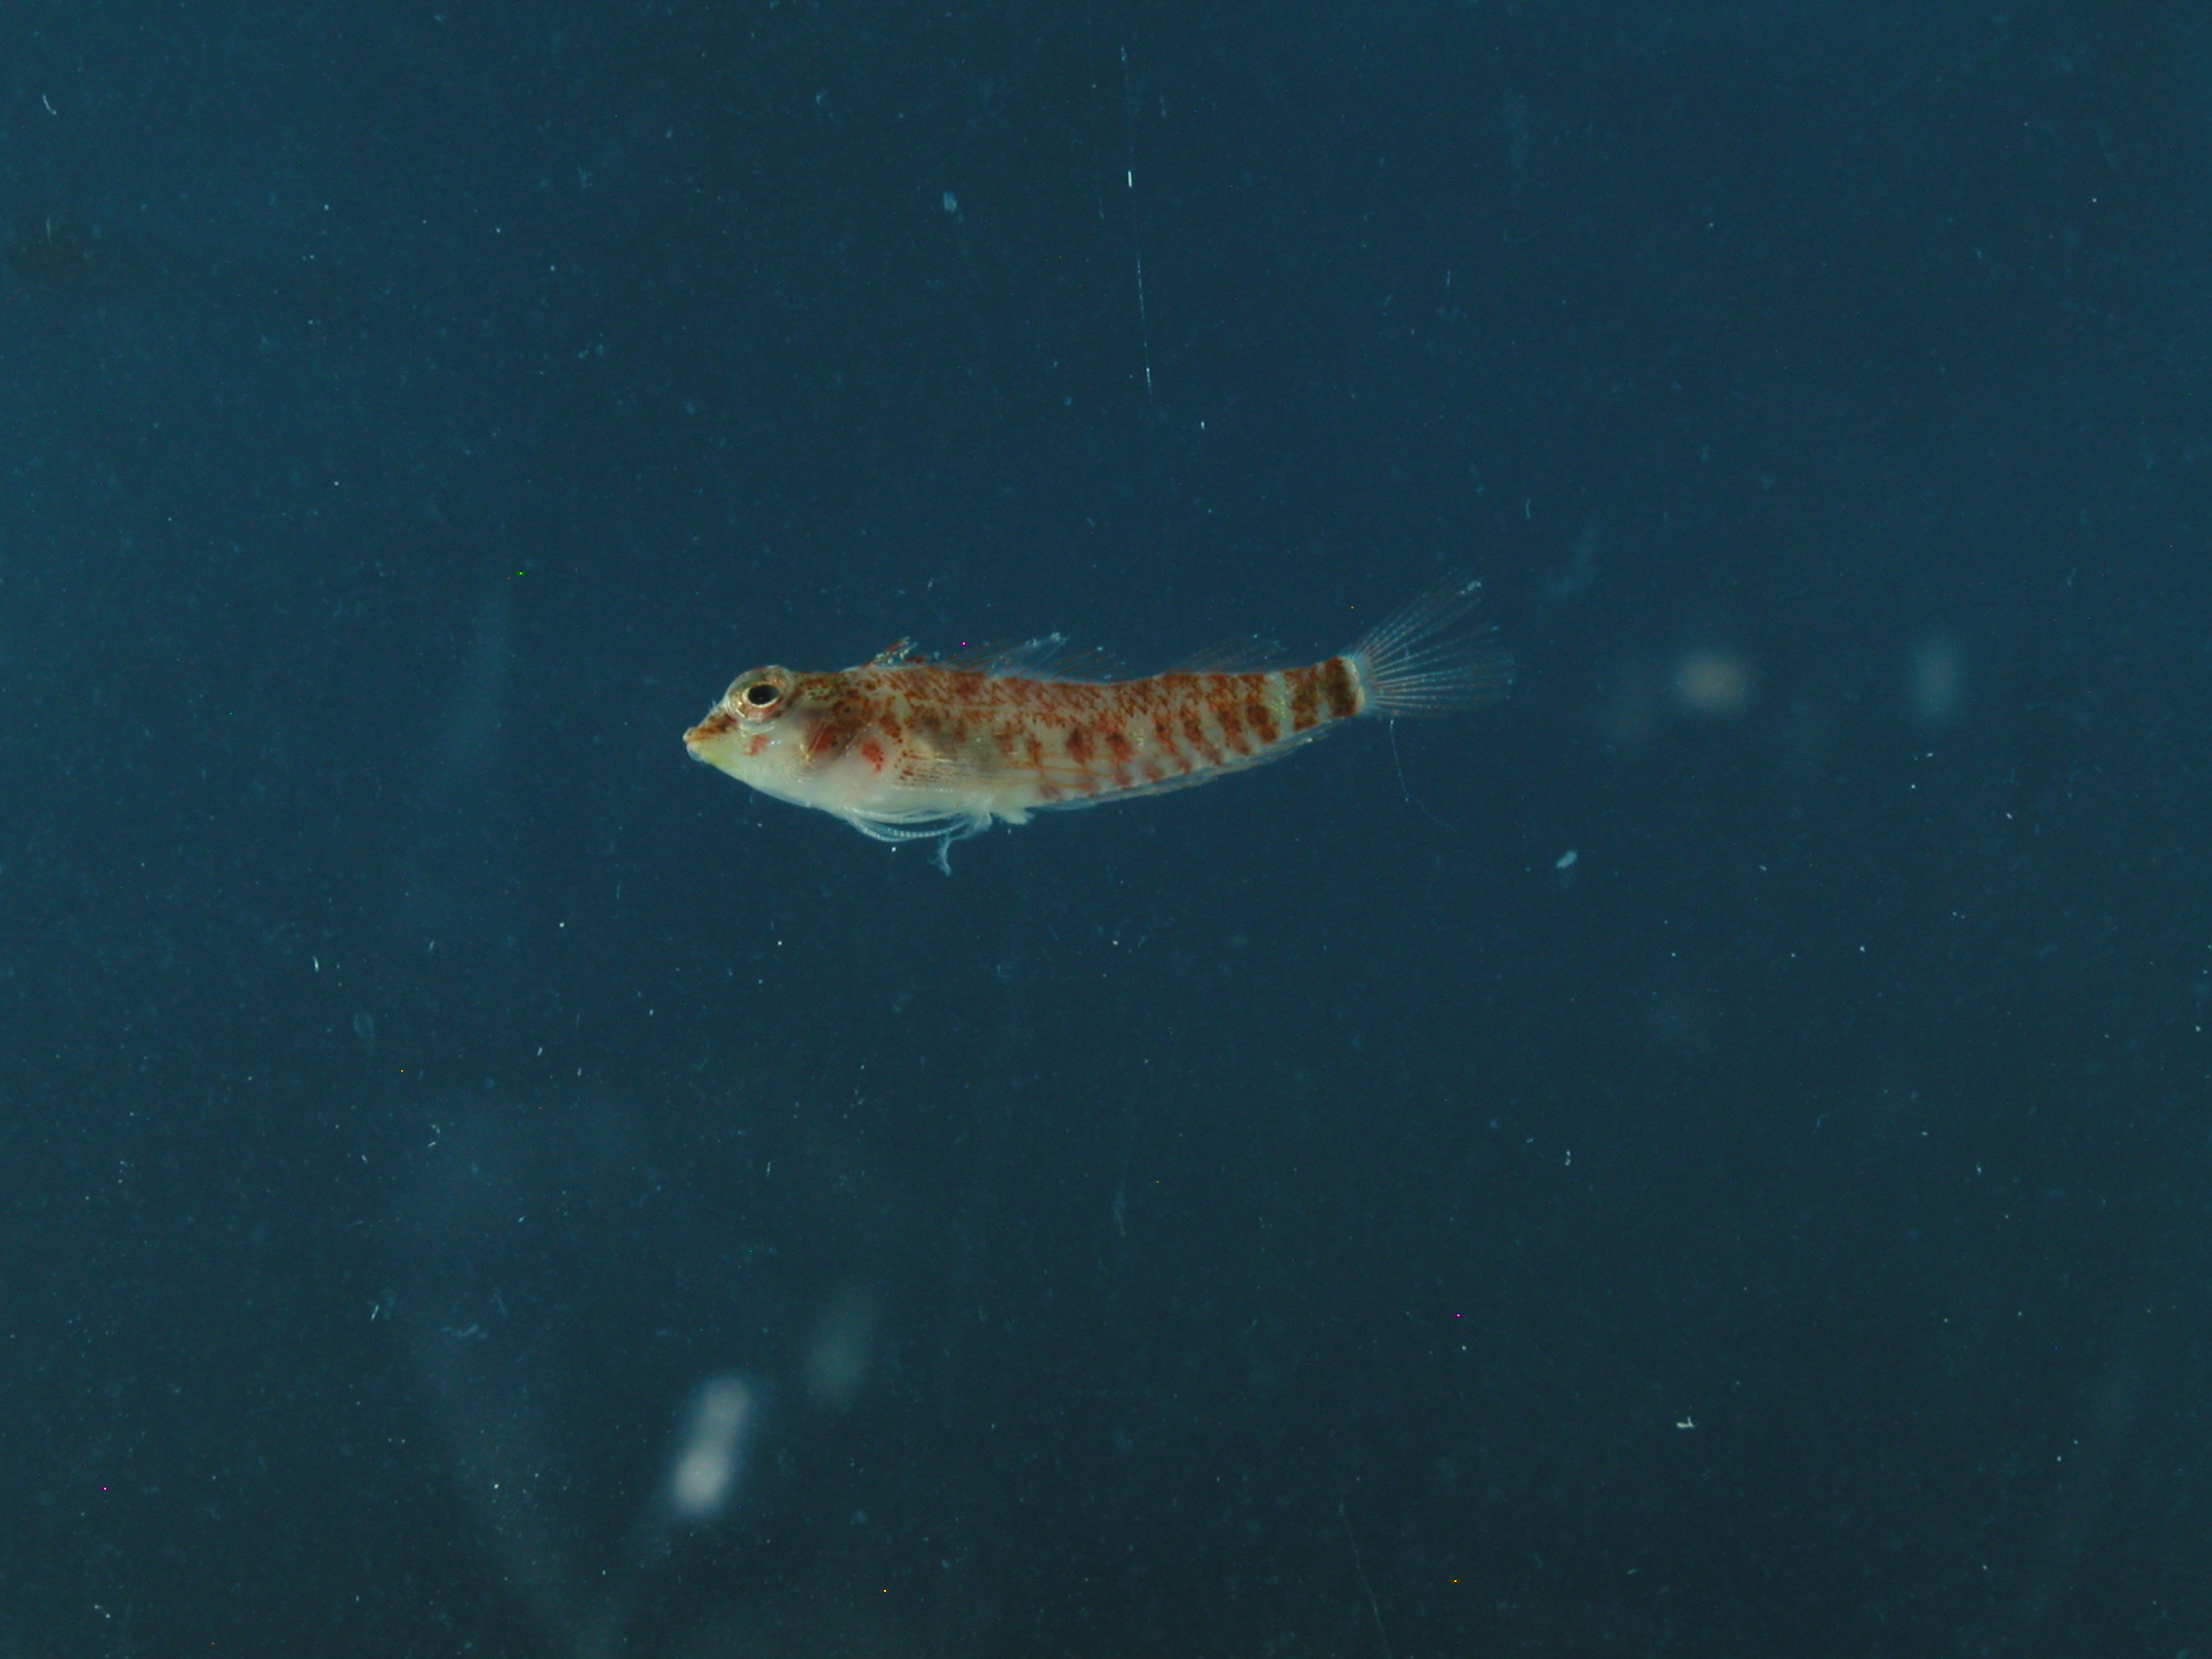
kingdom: Animalia
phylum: Chordata
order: Perciformes
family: Tripterygiidae
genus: Enneapterygius
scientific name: Enneapterygius tutuilae
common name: High-hat triplefin
